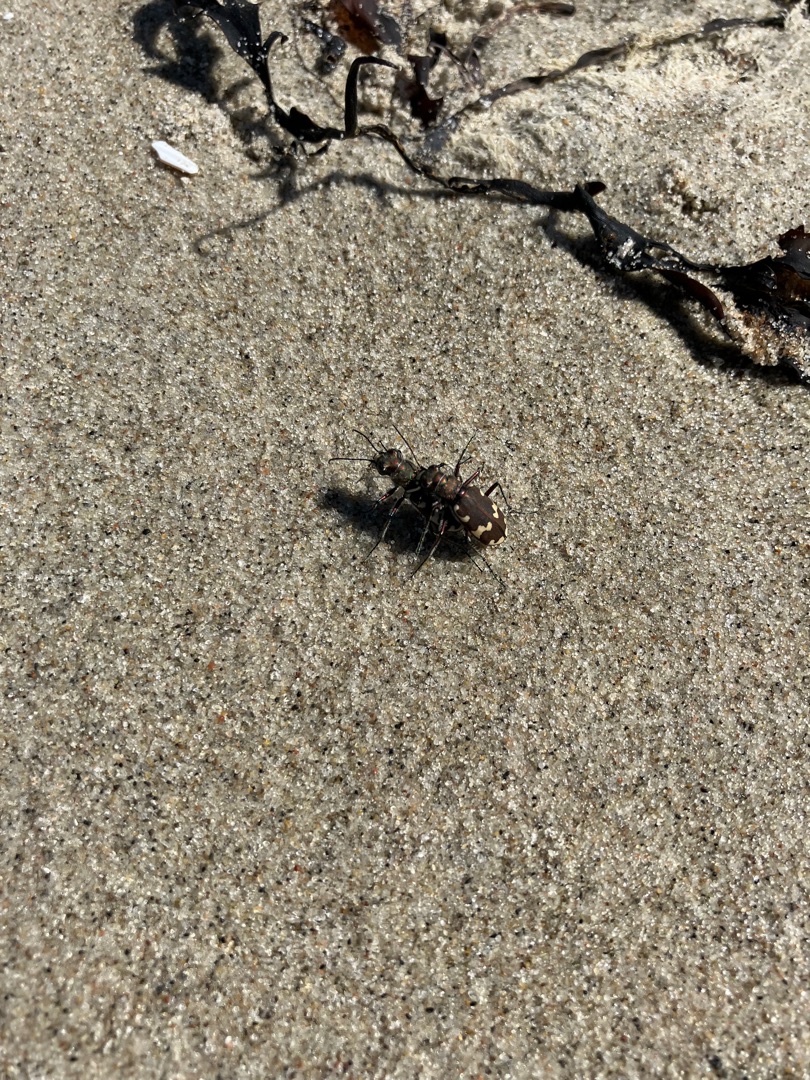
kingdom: Animalia
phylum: Arthropoda
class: Insecta
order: Coleoptera
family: Carabidae
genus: Cicindela
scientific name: Cicindela hybrida
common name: Brun sandspringer
